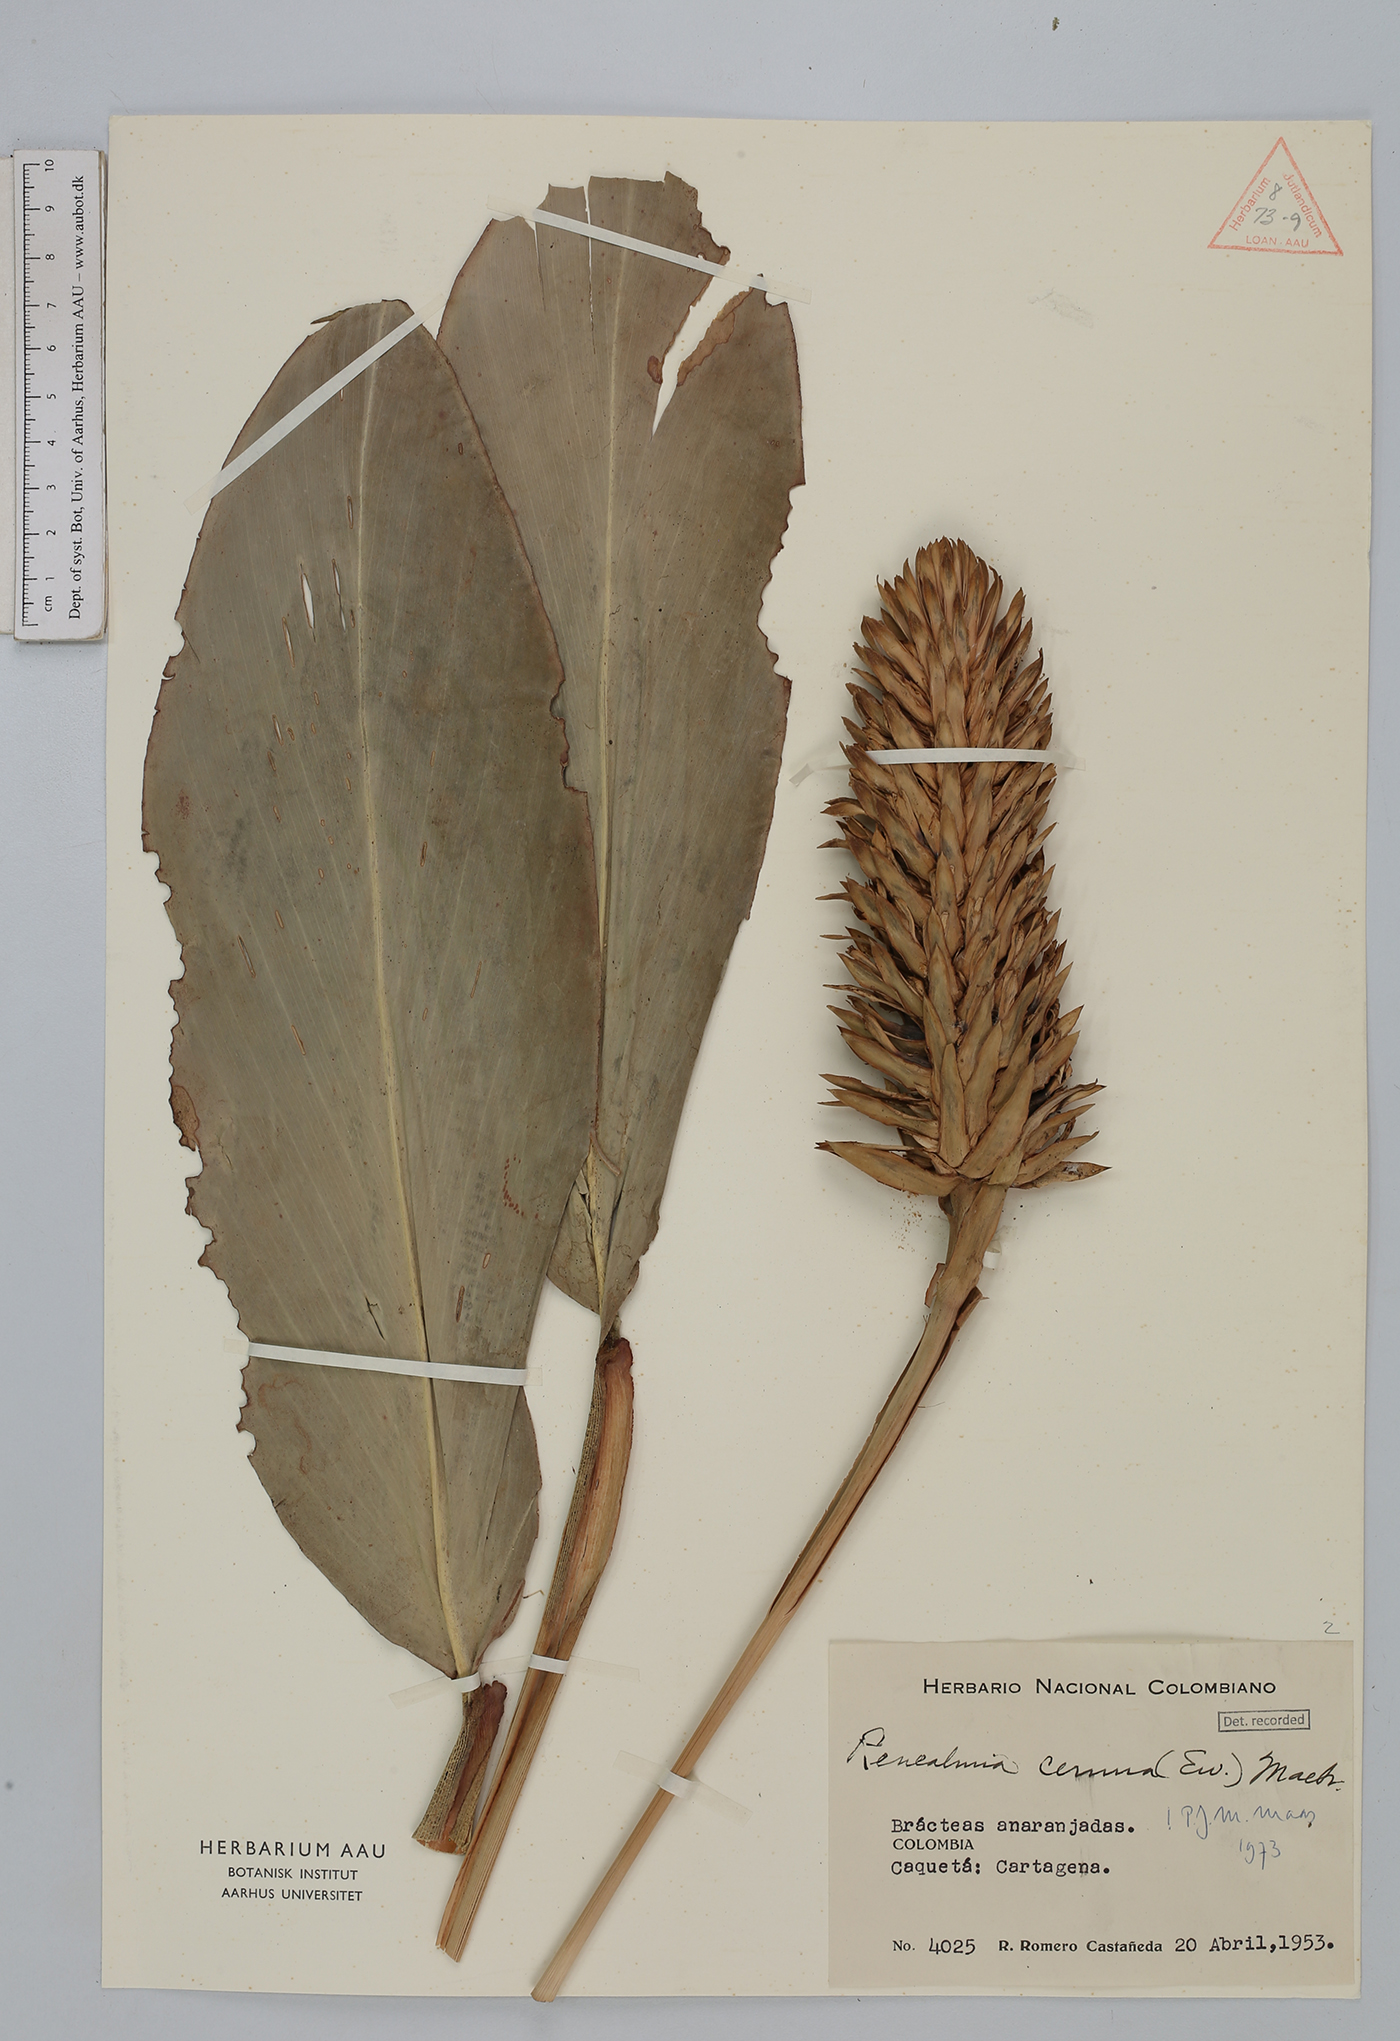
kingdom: Plantae
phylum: Tracheophyta
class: Liliopsida
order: Zingiberales
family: Zingiberaceae
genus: Renealmia
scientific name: Renealmia cernua
